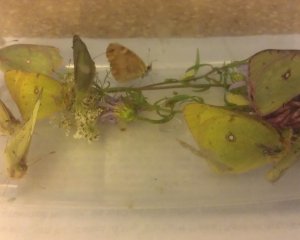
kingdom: Animalia
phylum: Arthropoda
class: Insecta
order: Lepidoptera
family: Pieridae
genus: Colias
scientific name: Colias philodice
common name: Clouded Sulphur
